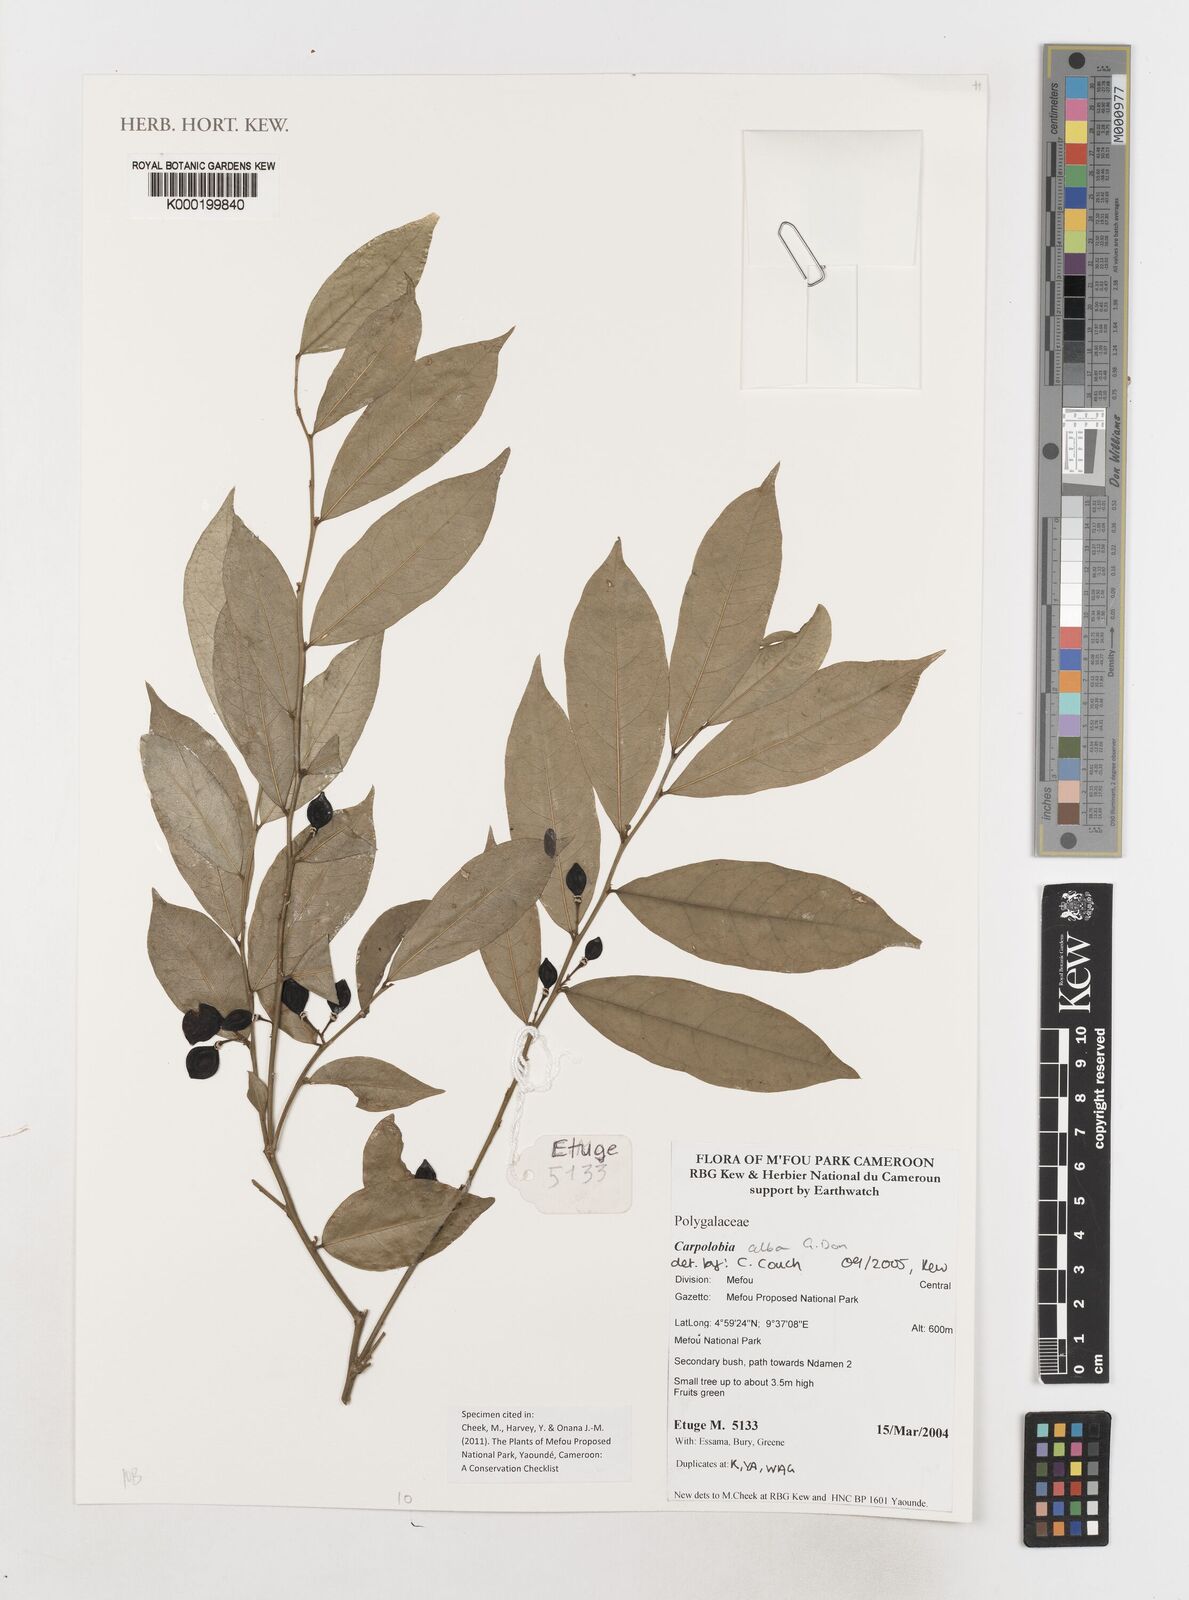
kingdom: Plantae
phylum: Tracheophyta
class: Magnoliopsida
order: Fabales
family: Polygalaceae
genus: Carpolobia
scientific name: Carpolobia alba
